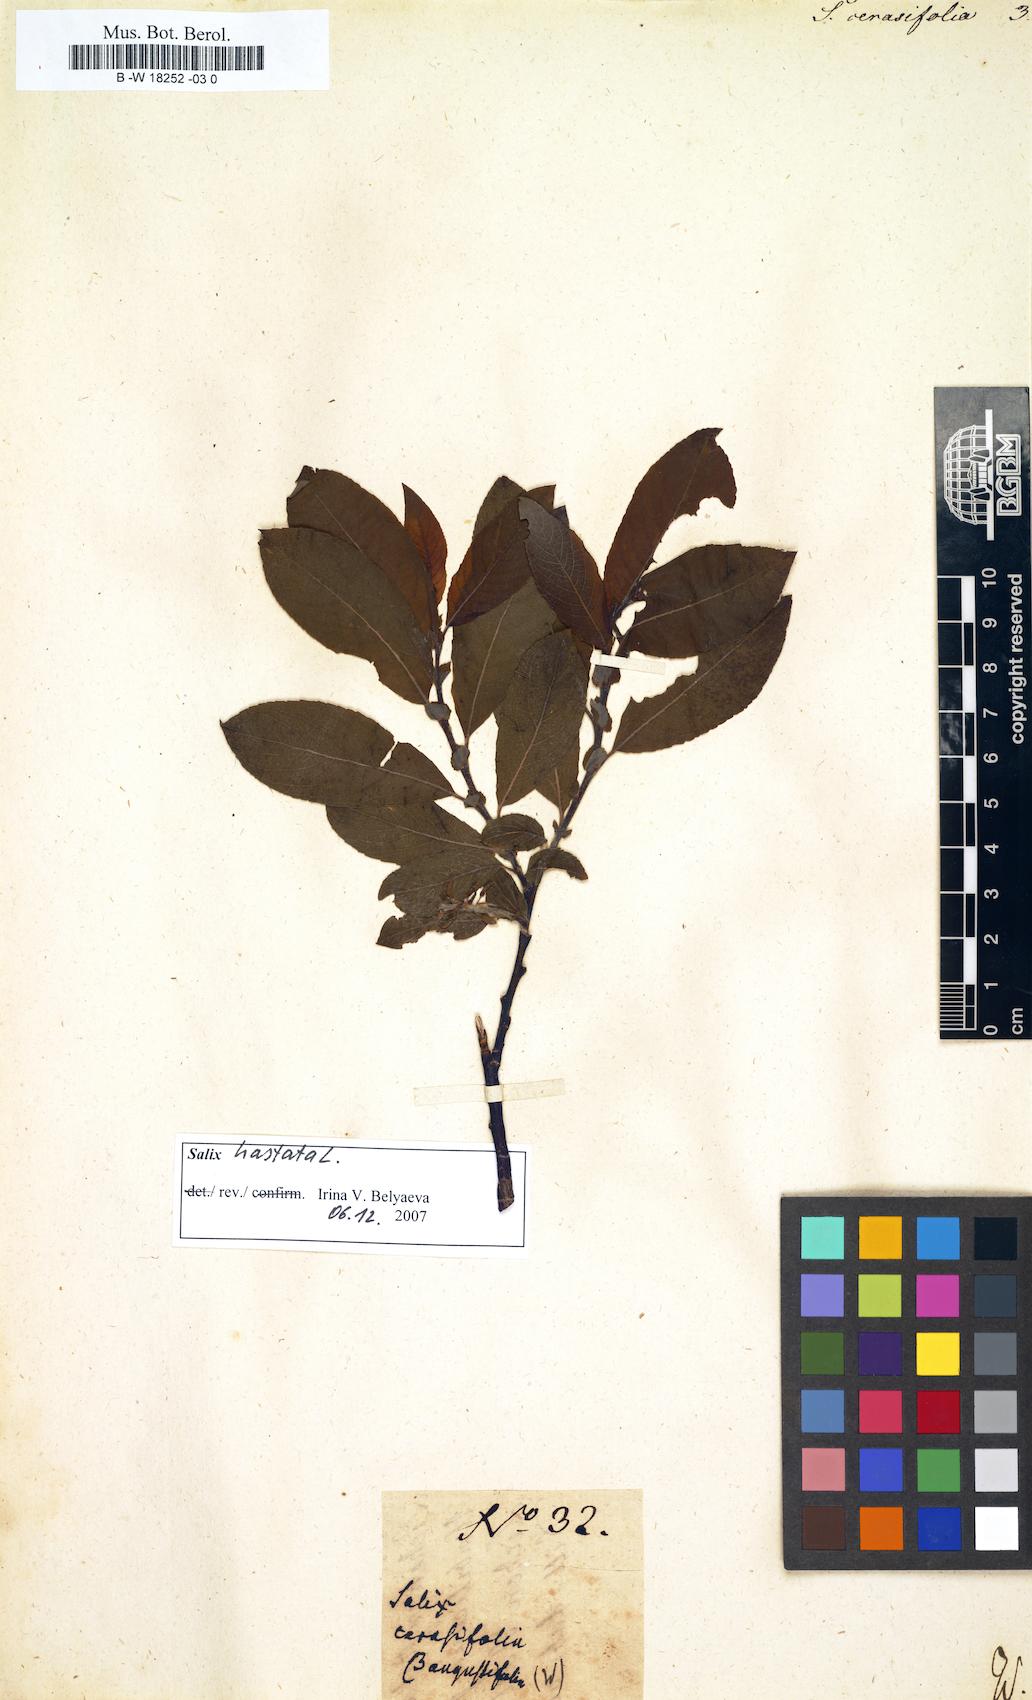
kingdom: Plantae
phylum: Tracheophyta
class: Magnoliopsida
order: Malpighiales
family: Salicaceae
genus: Salix
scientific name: Salix
